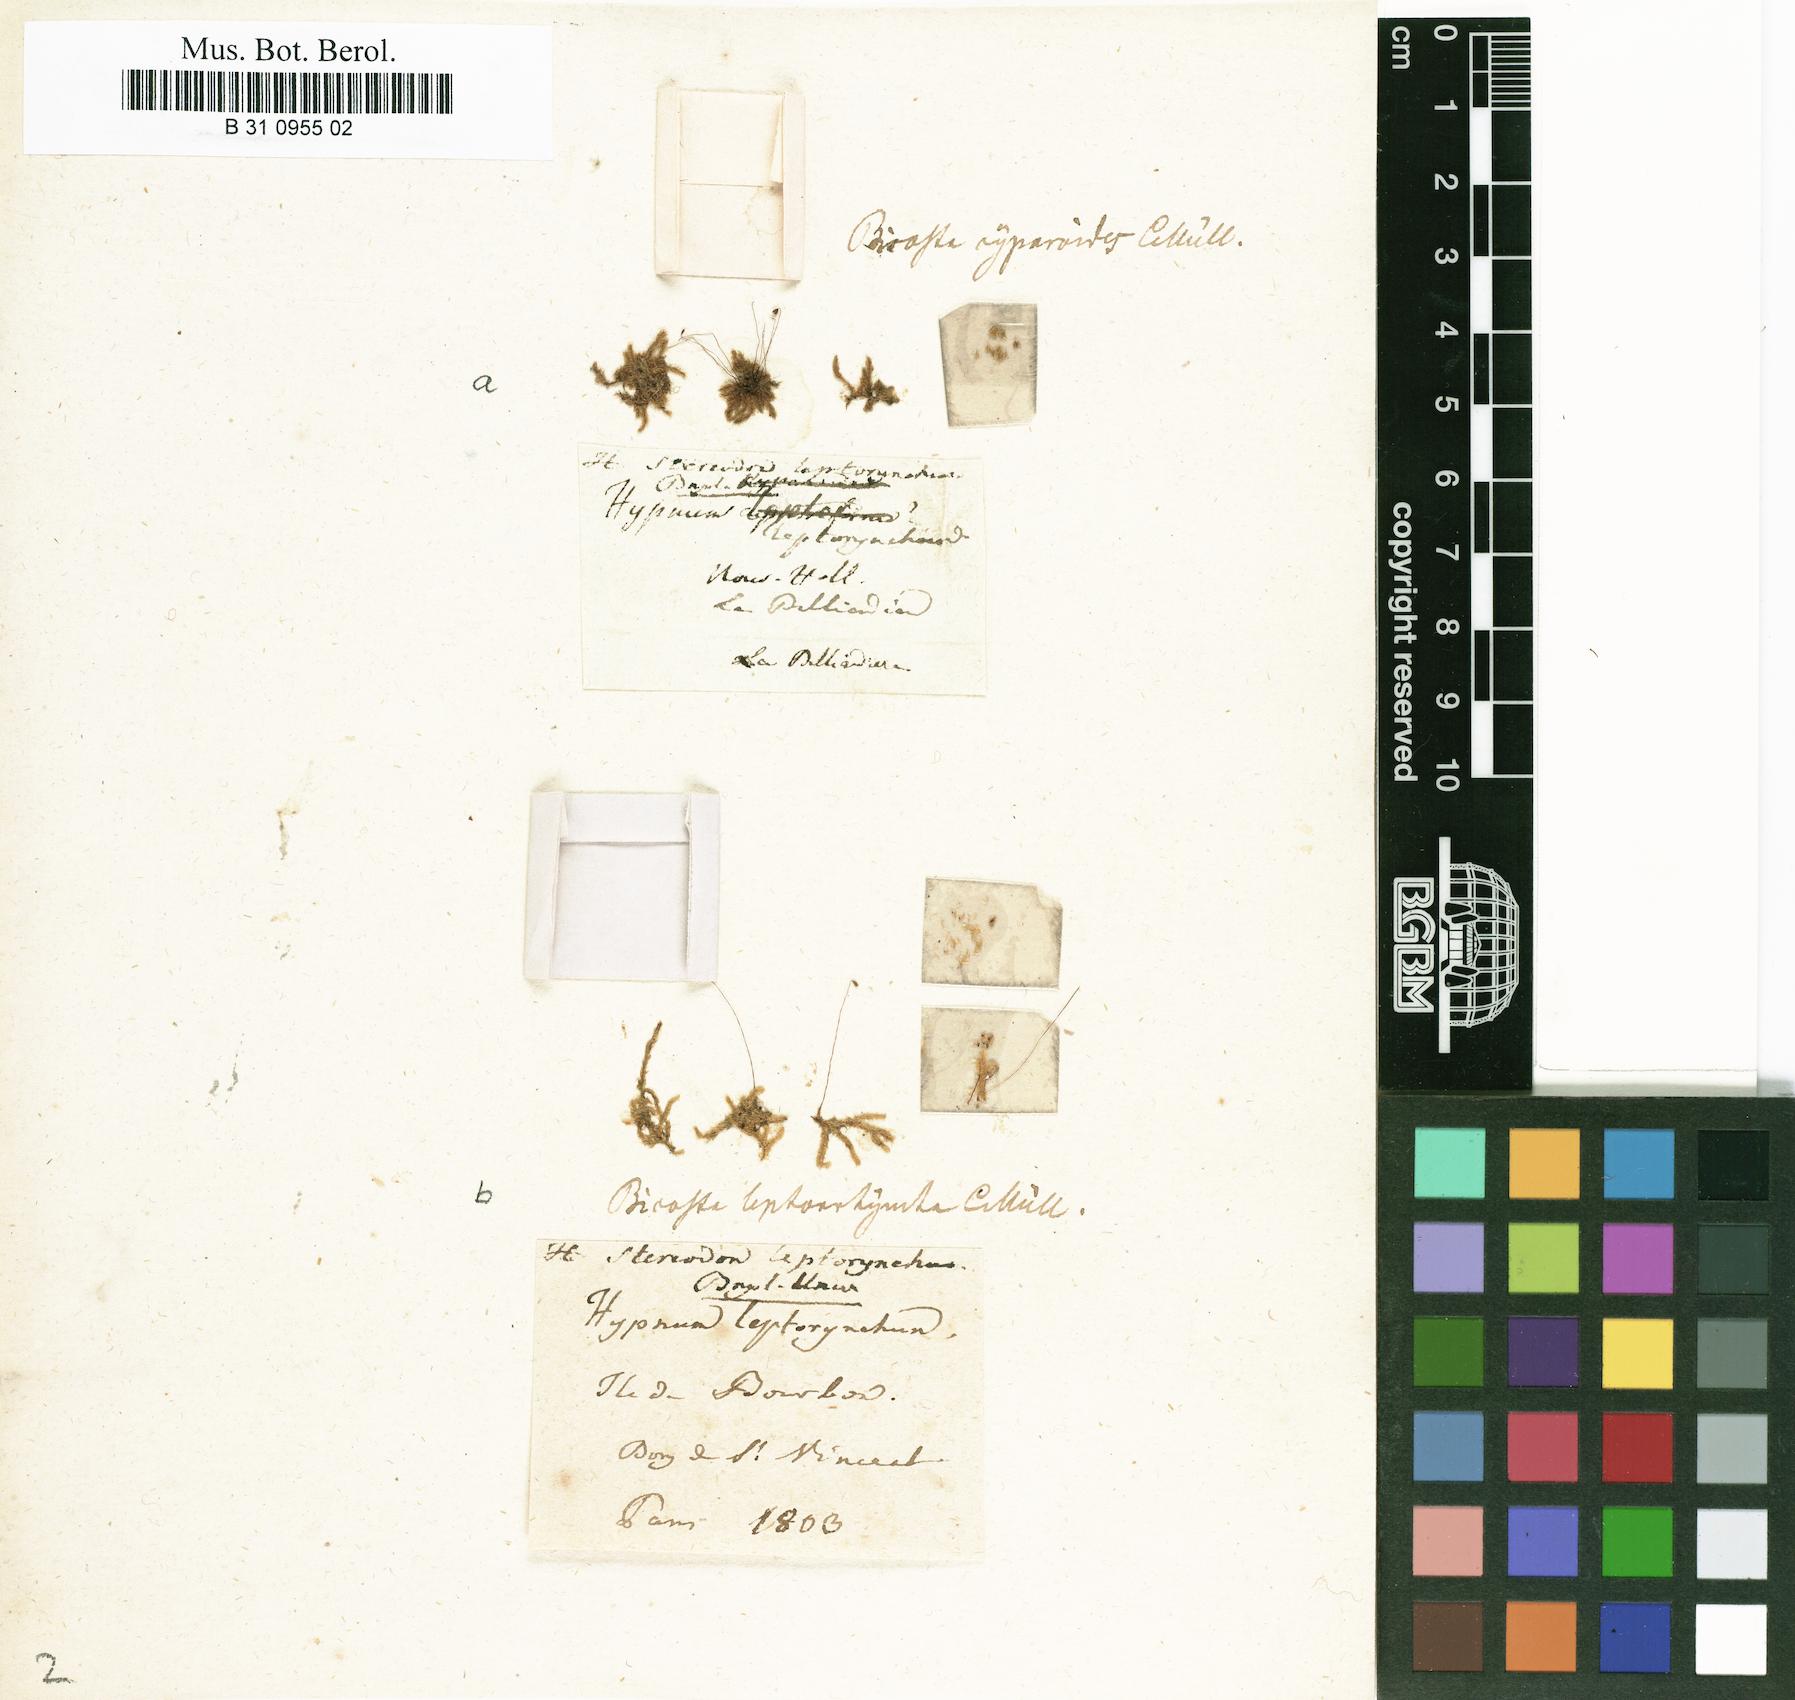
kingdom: Plantae
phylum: Bryophyta
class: Bryopsida
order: Hypnales
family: Sematophyllaceae
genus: Rhaphidorrhynchium
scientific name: Rhaphidorrhynchium amoenum
